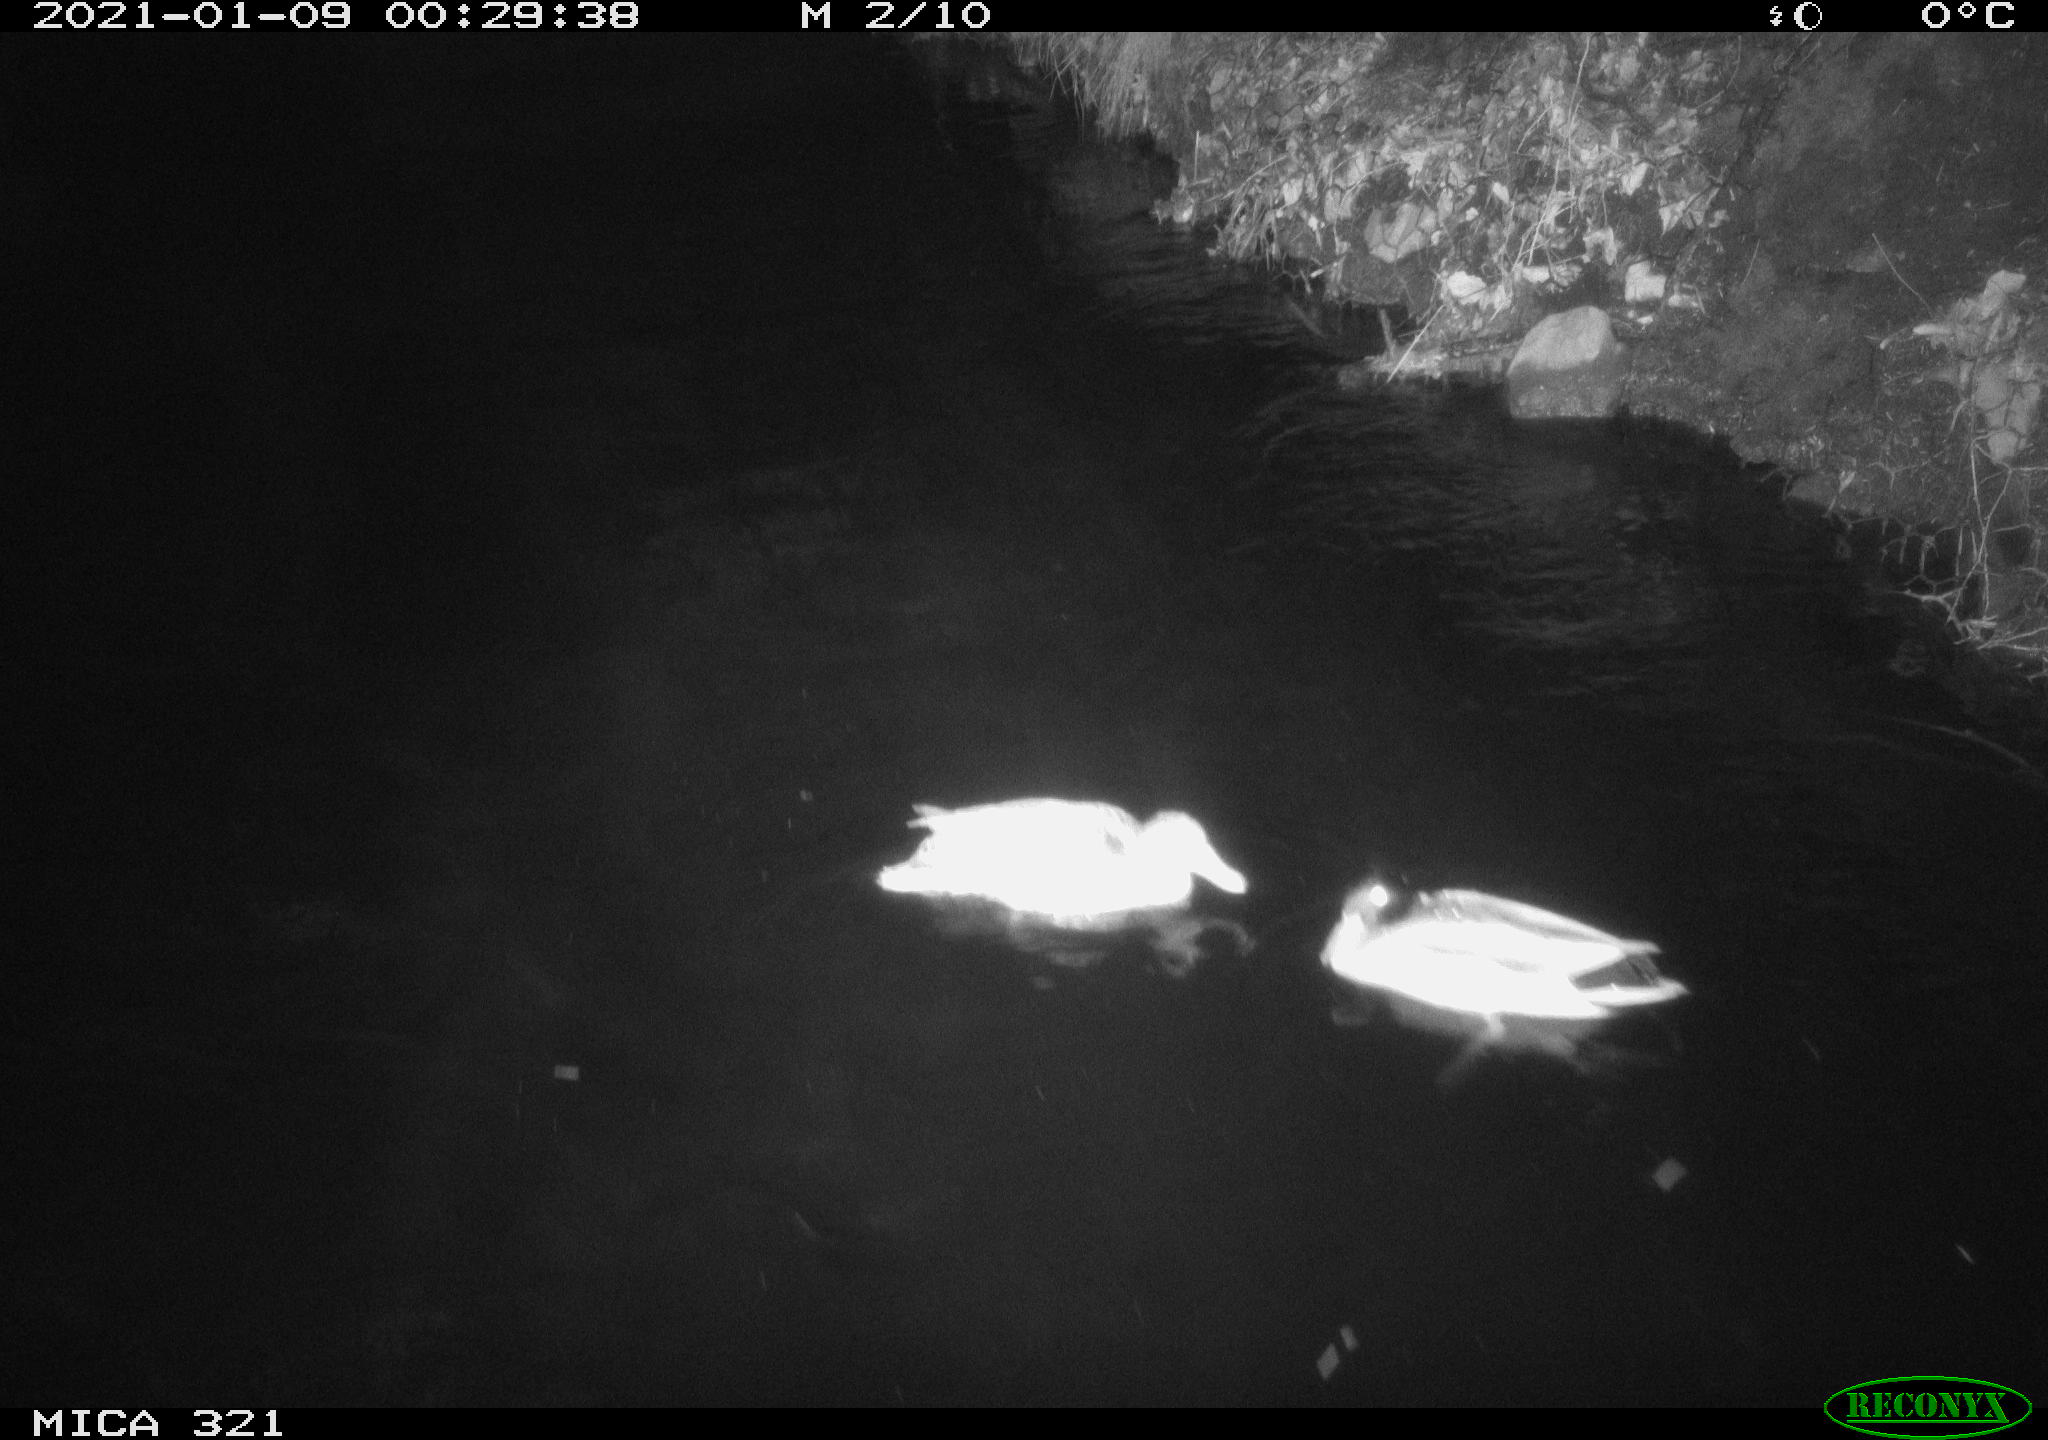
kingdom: Animalia
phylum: Chordata
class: Aves
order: Anseriformes
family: Anatidae
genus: Anas
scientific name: Anas platyrhynchos
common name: Mallard
